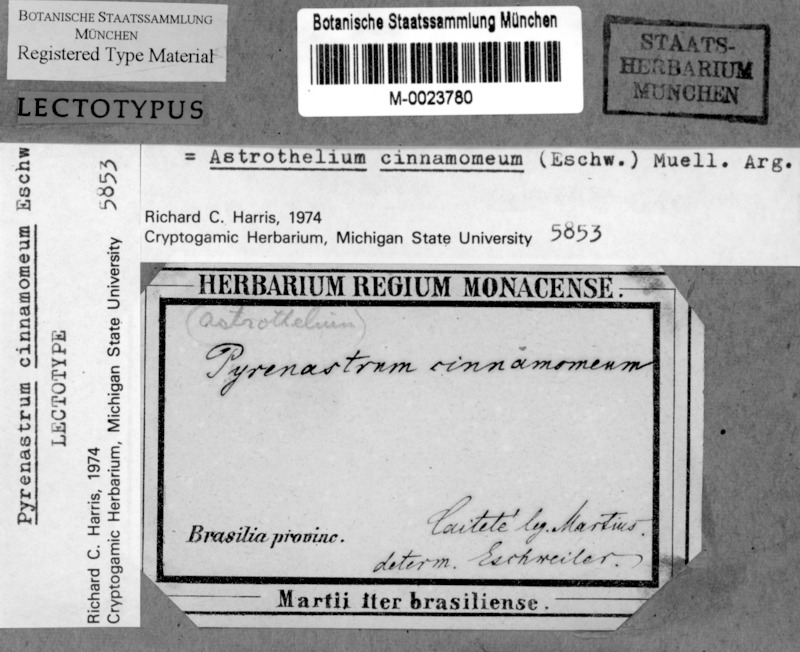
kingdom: Fungi
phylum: Ascomycota
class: Dothideomycetes
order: Trypetheliales
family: Trypetheliaceae
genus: Astrothelium
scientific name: Astrothelium cinnamomeum
